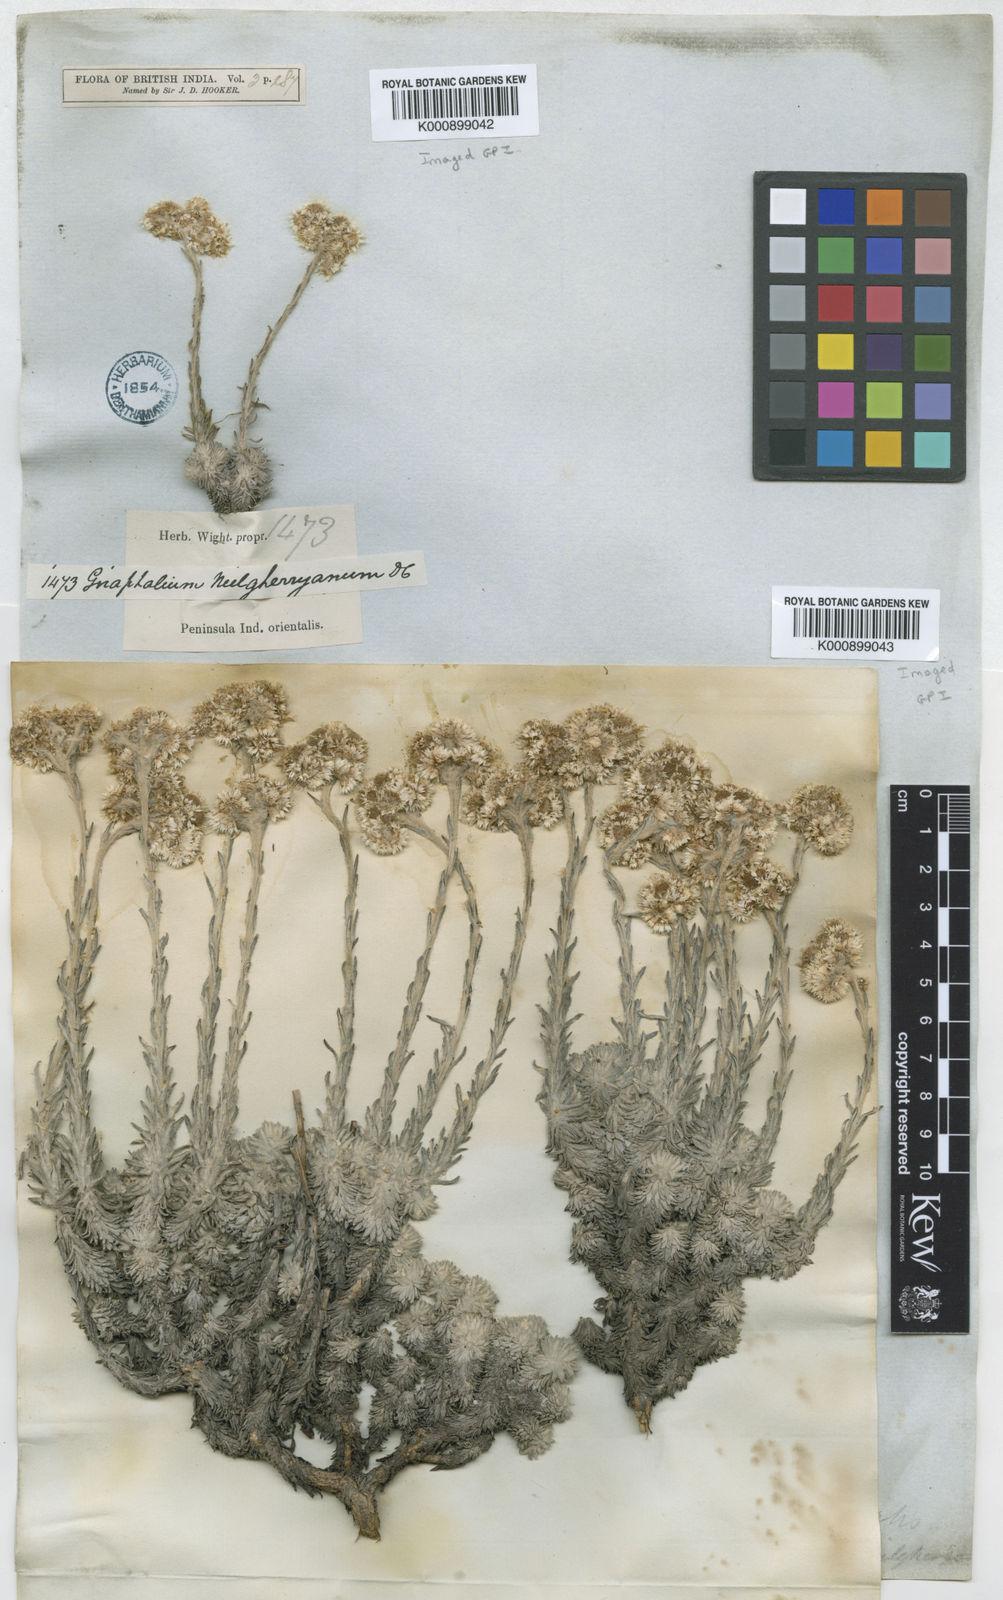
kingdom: Plantae
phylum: Tracheophyta
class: Magnoliopsida
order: Asterales
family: Asteraceae
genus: Anaphalis
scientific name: Anaphalis neelgerryana
